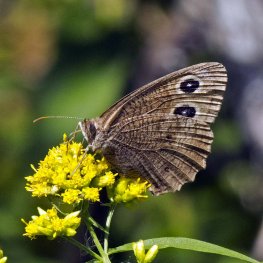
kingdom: Animalia
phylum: Arthropoda
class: Insecta
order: Lepidoptera
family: Nymphalidae
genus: Cercyonis
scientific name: Cercyonis pegala
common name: Common Wood-Nymph
